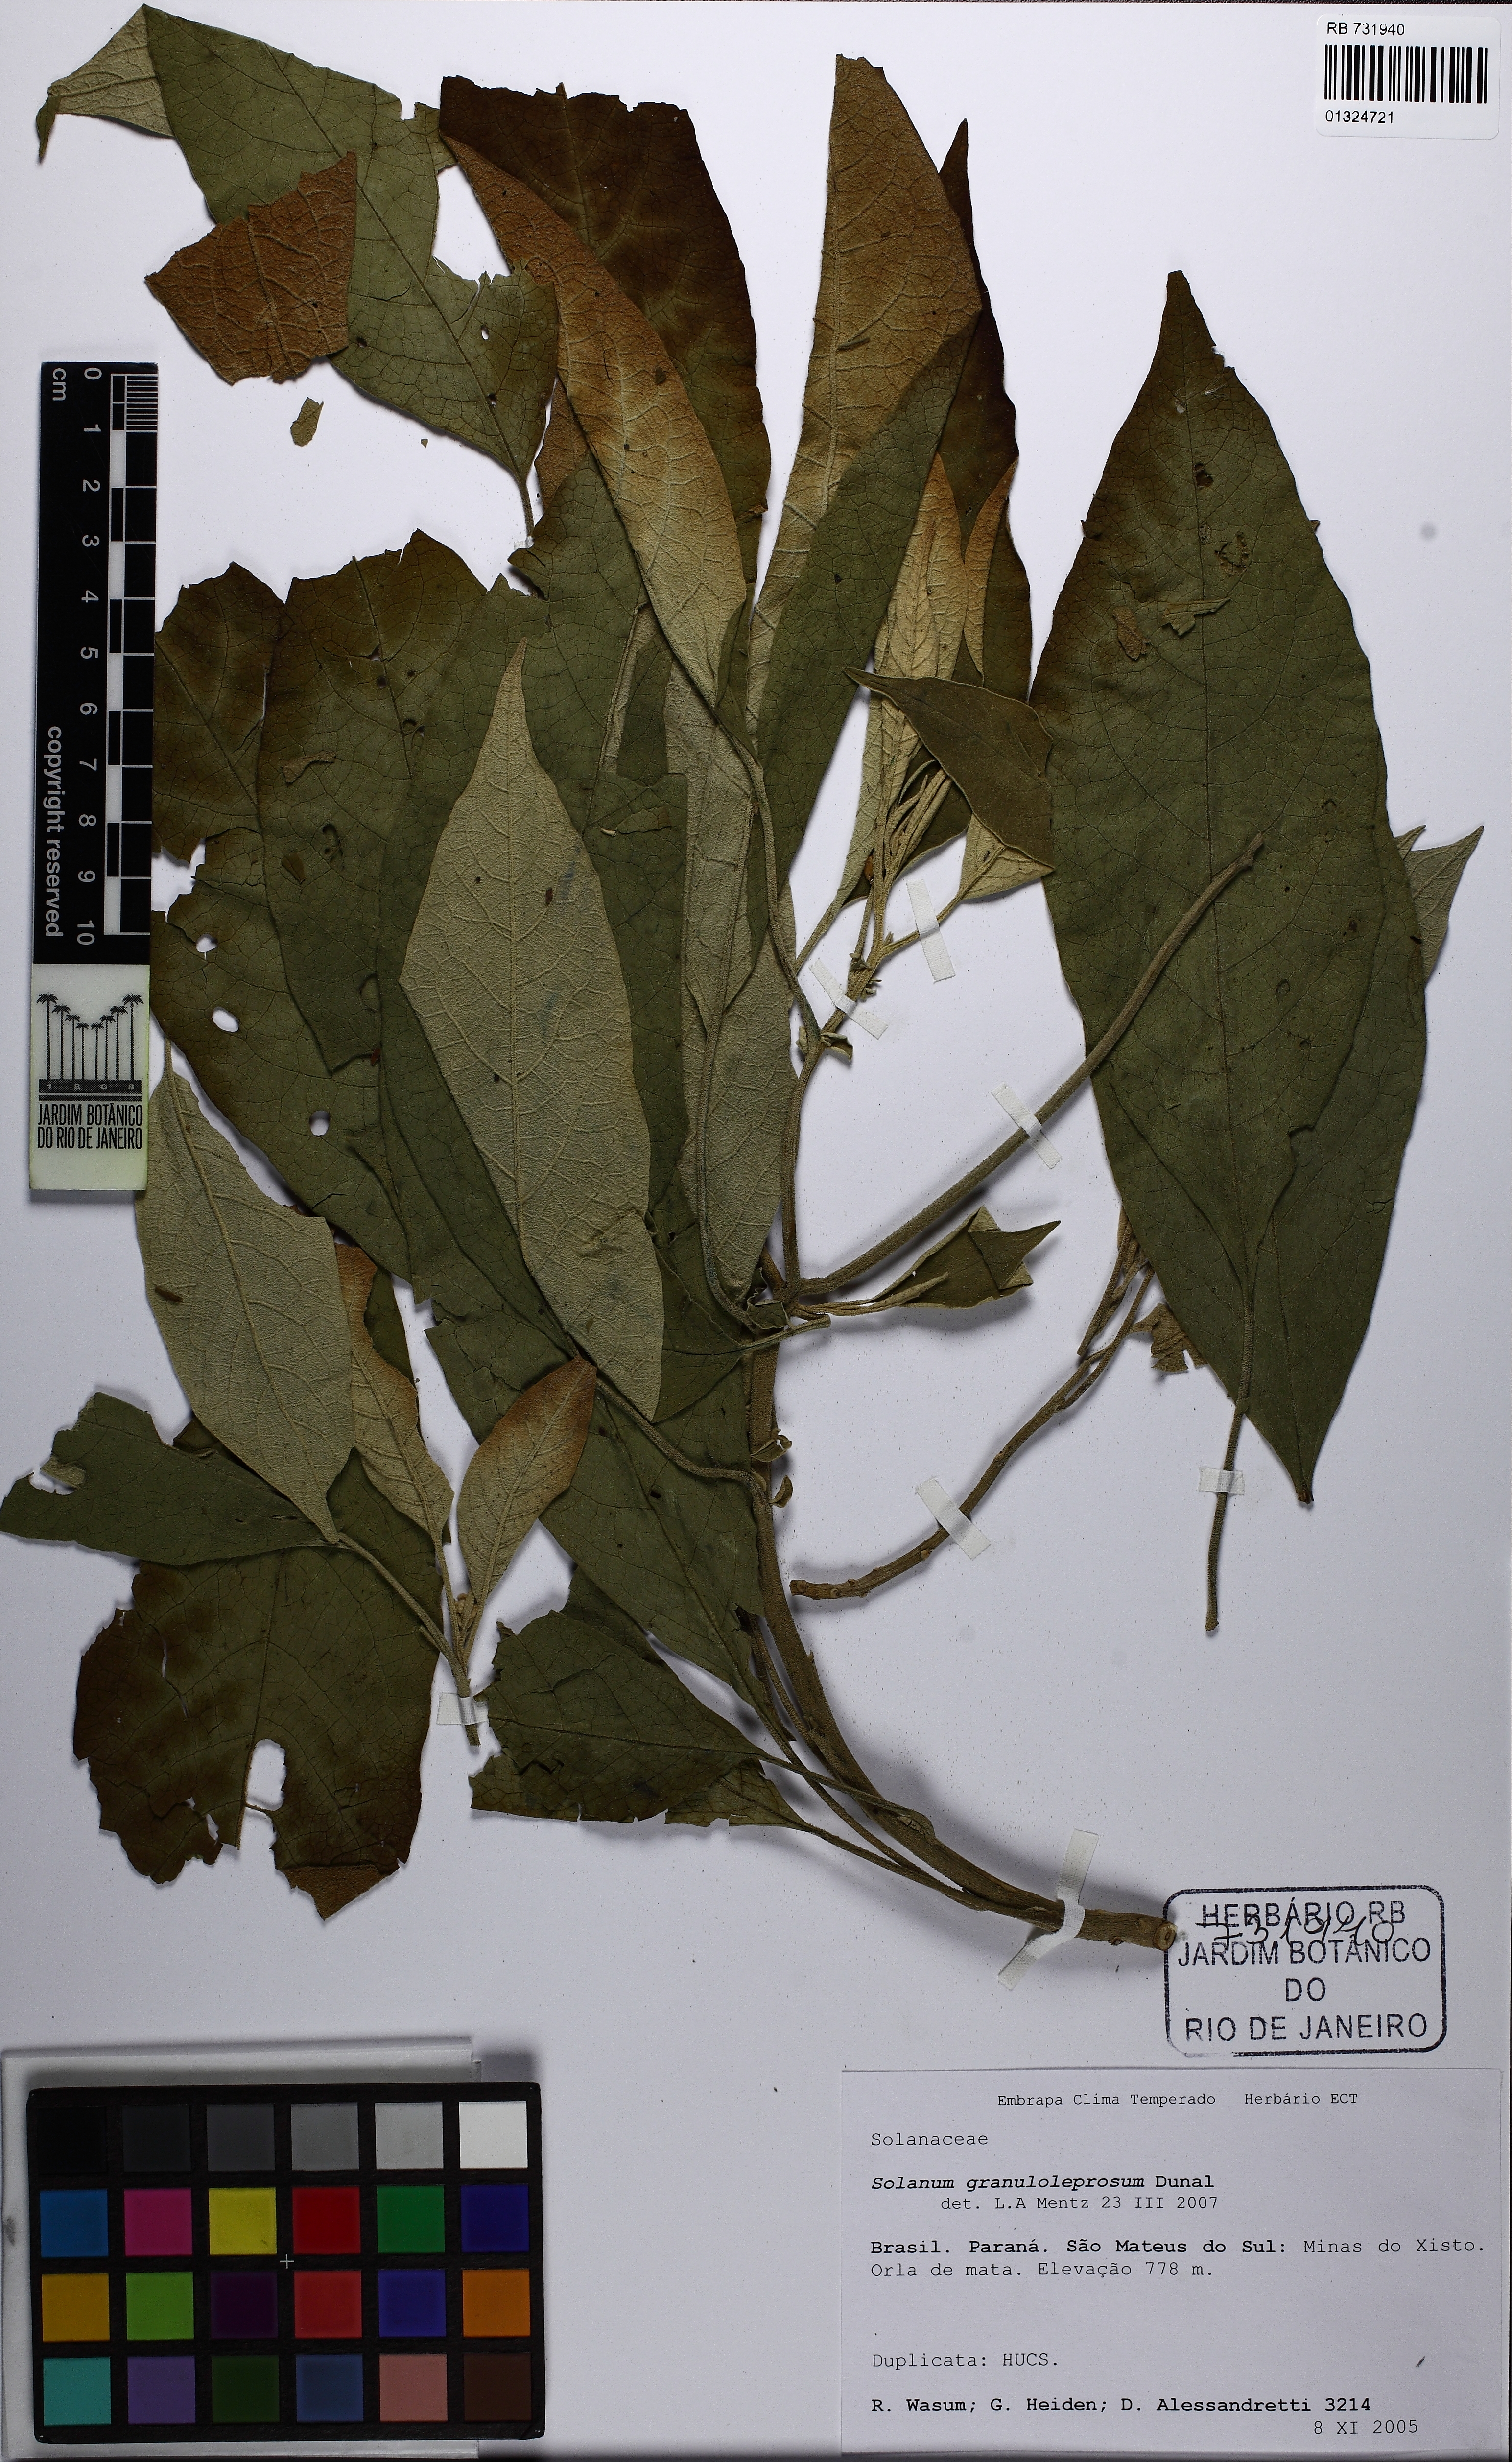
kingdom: Plantae
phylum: Tracheophyta
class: Magnoliopsida
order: Solanales
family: Solanaceae
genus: Solanum
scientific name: Solanum granulosoleprosum
